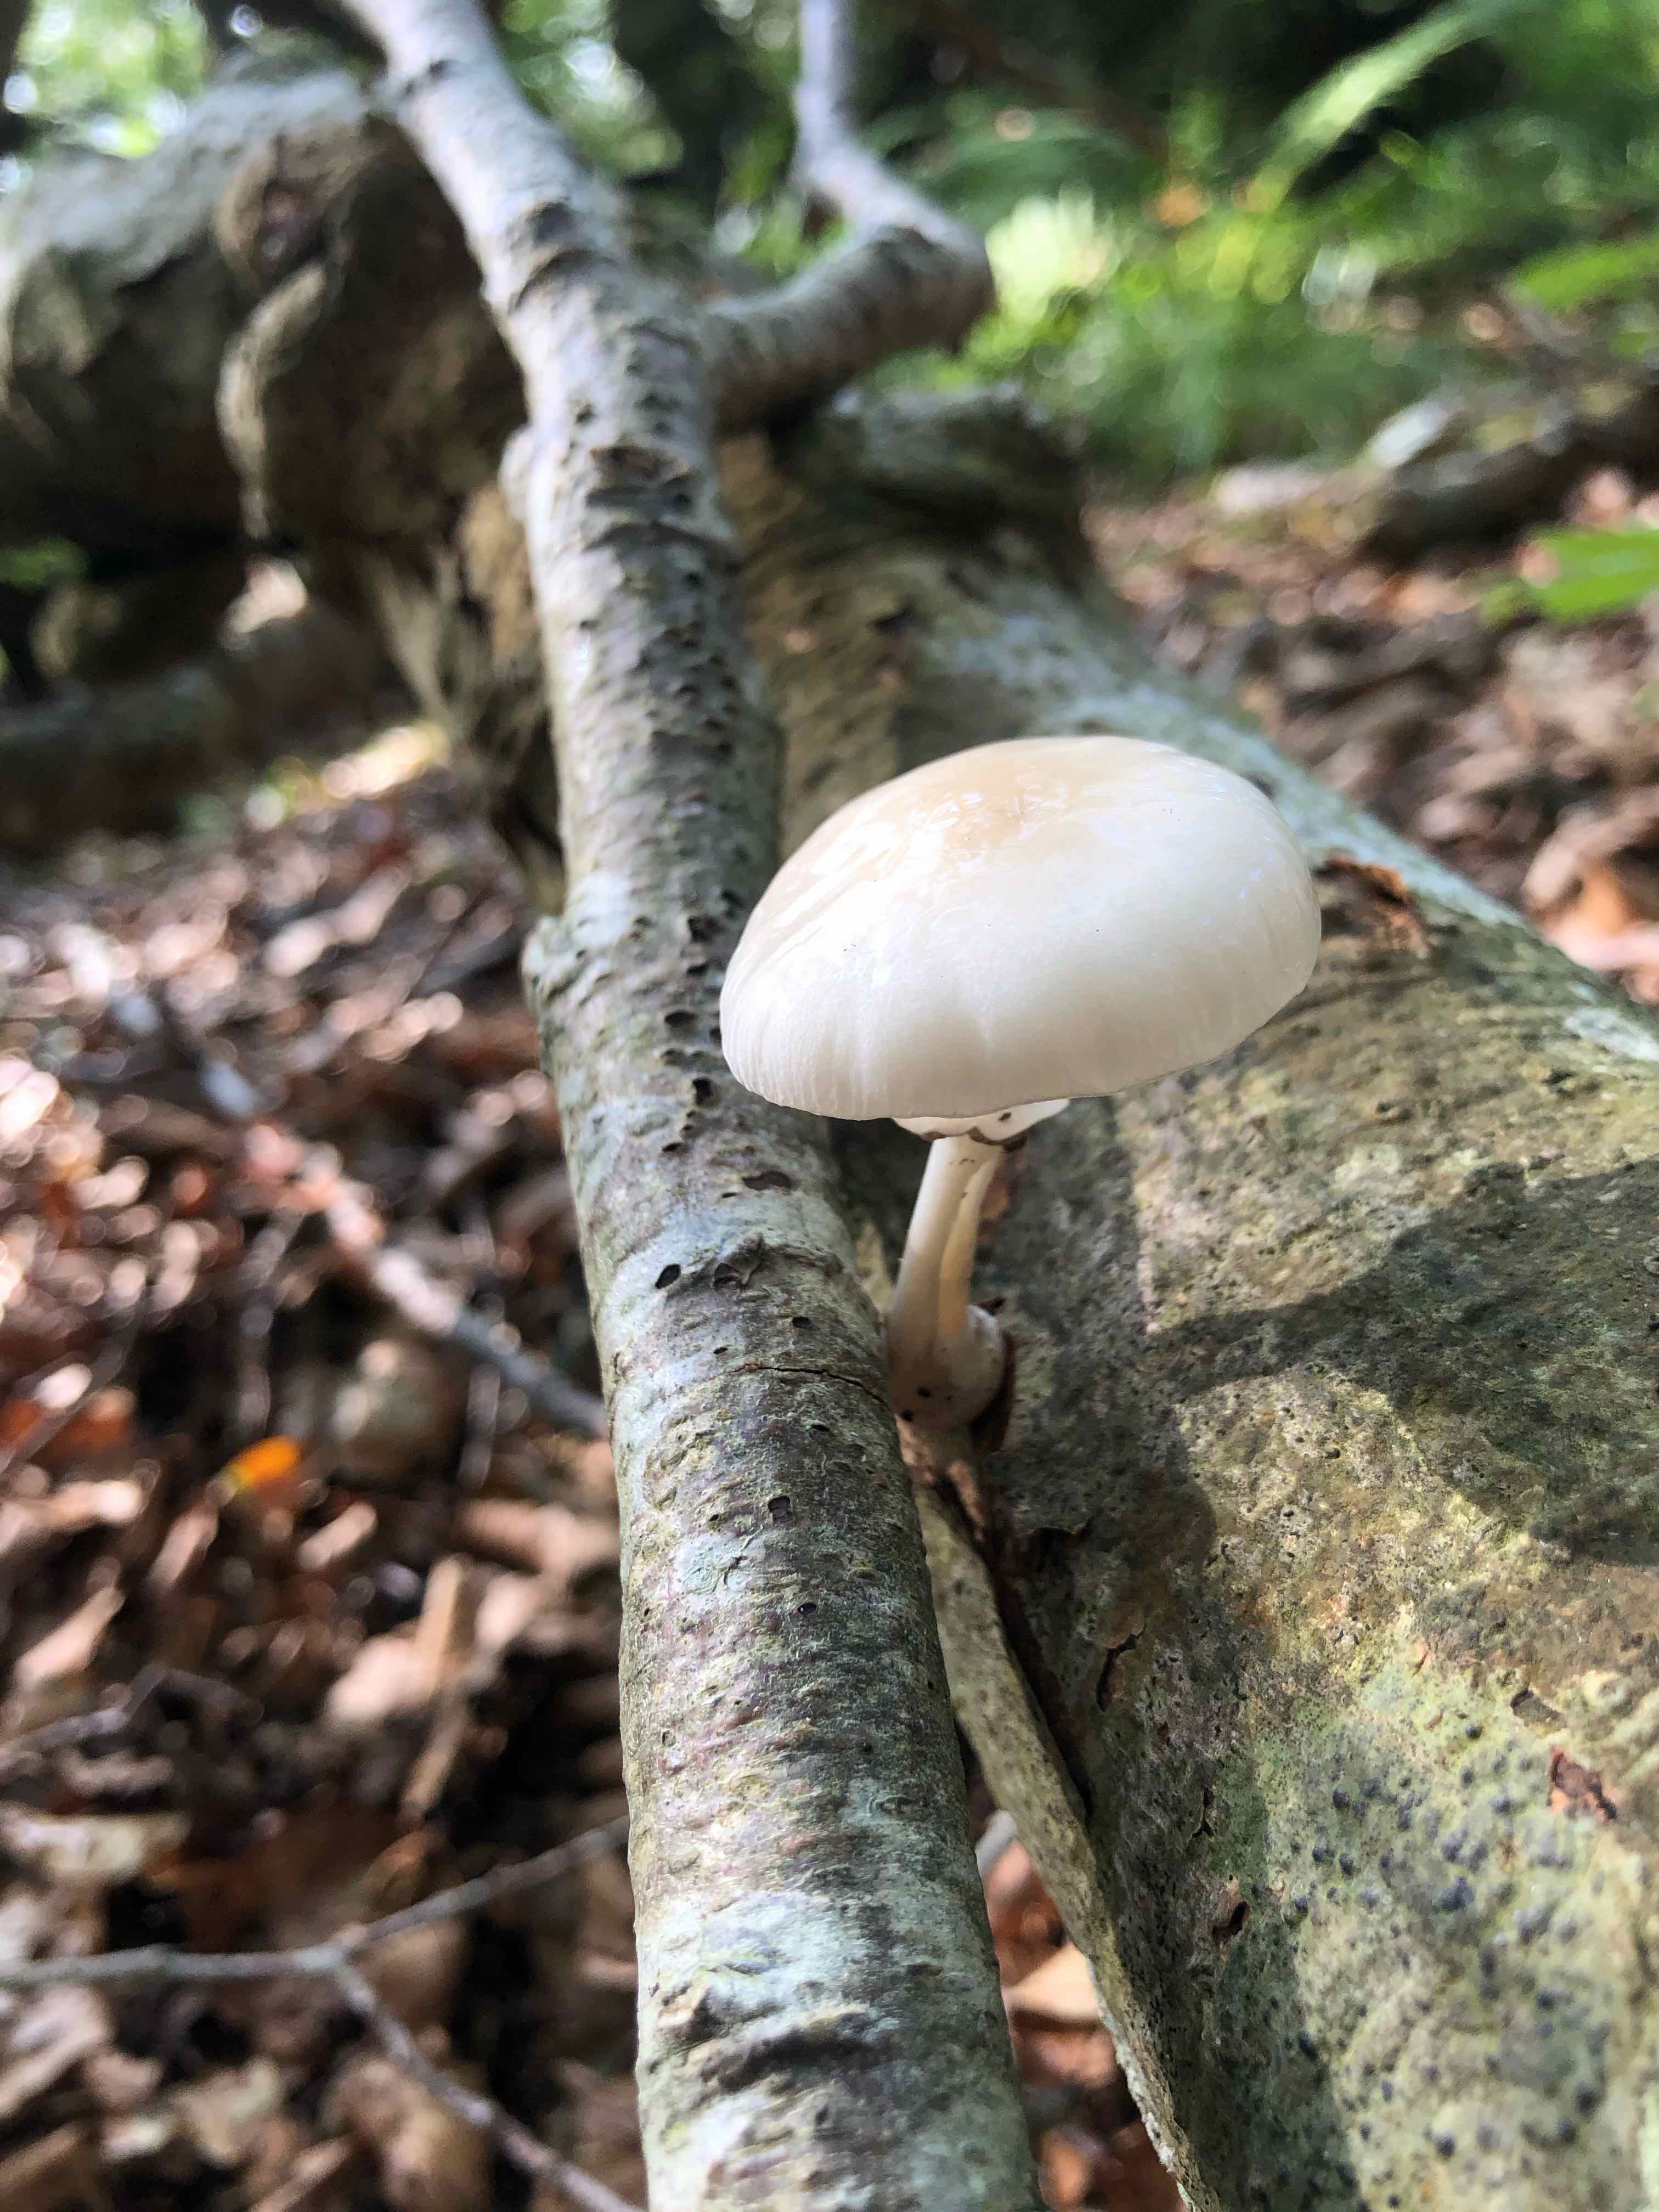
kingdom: Fungi
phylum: Basidiomycota
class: Agaricomycetes
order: Agaricales
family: Physalacriaceae
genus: Mucidula
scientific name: Mucidula mucida
